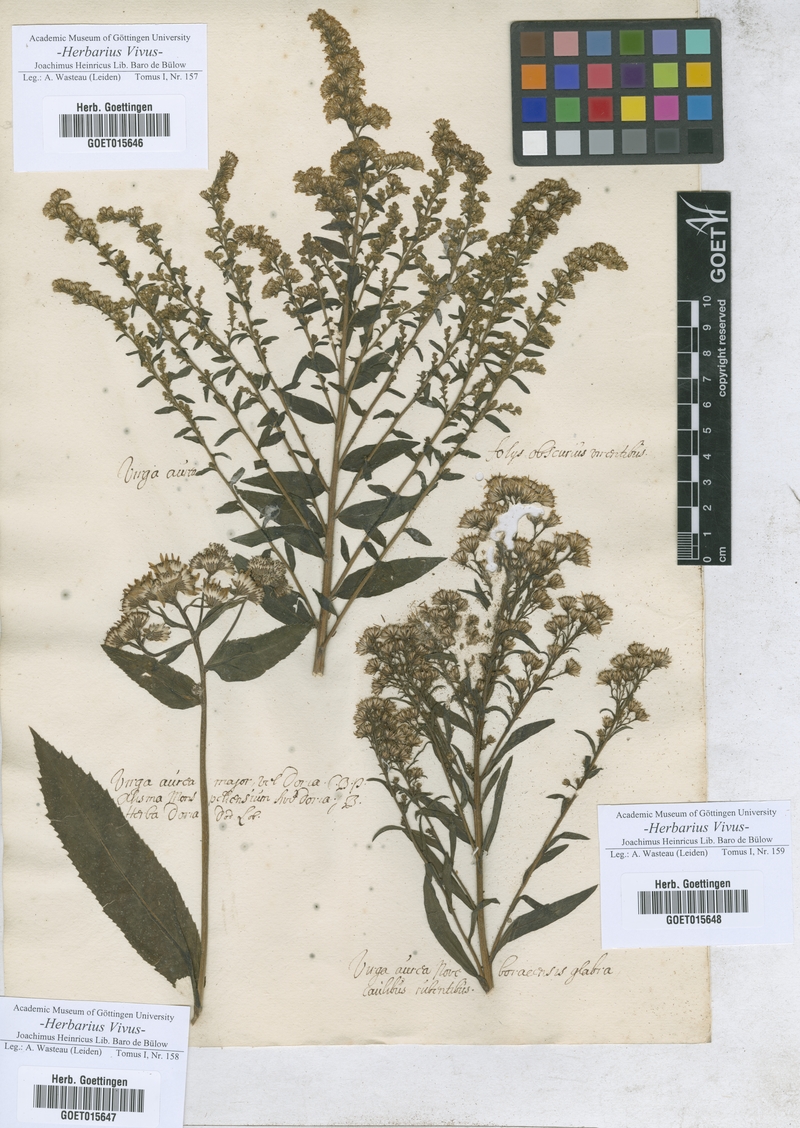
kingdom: Animalia
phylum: Arthropoda
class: Insecta
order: Lepidoptera
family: Hesperiidae
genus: Virga
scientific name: Virga
